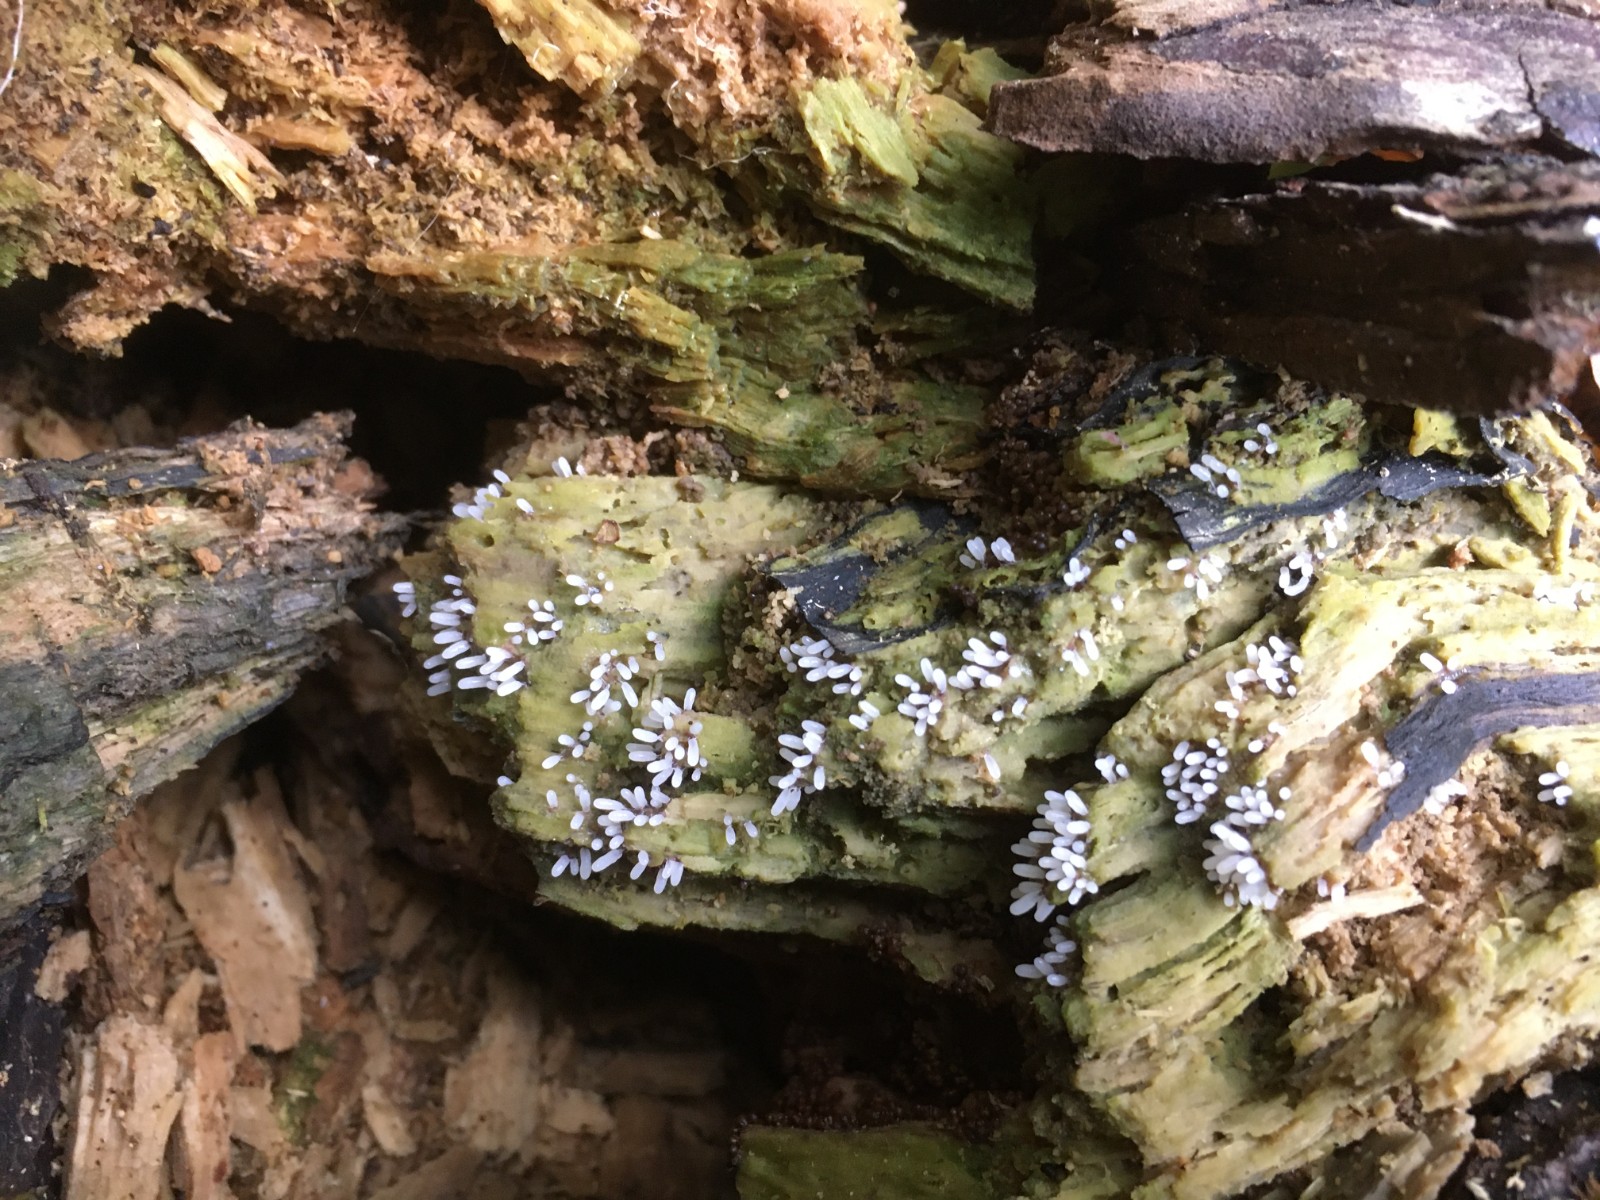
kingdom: Protozoa
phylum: Mycetozoa
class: Myxomycetes
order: Stemonitidales
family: Stemonitidaceae
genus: Stemonitopsis
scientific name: Stemonitopsis typhina
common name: skinnende støvkølle
